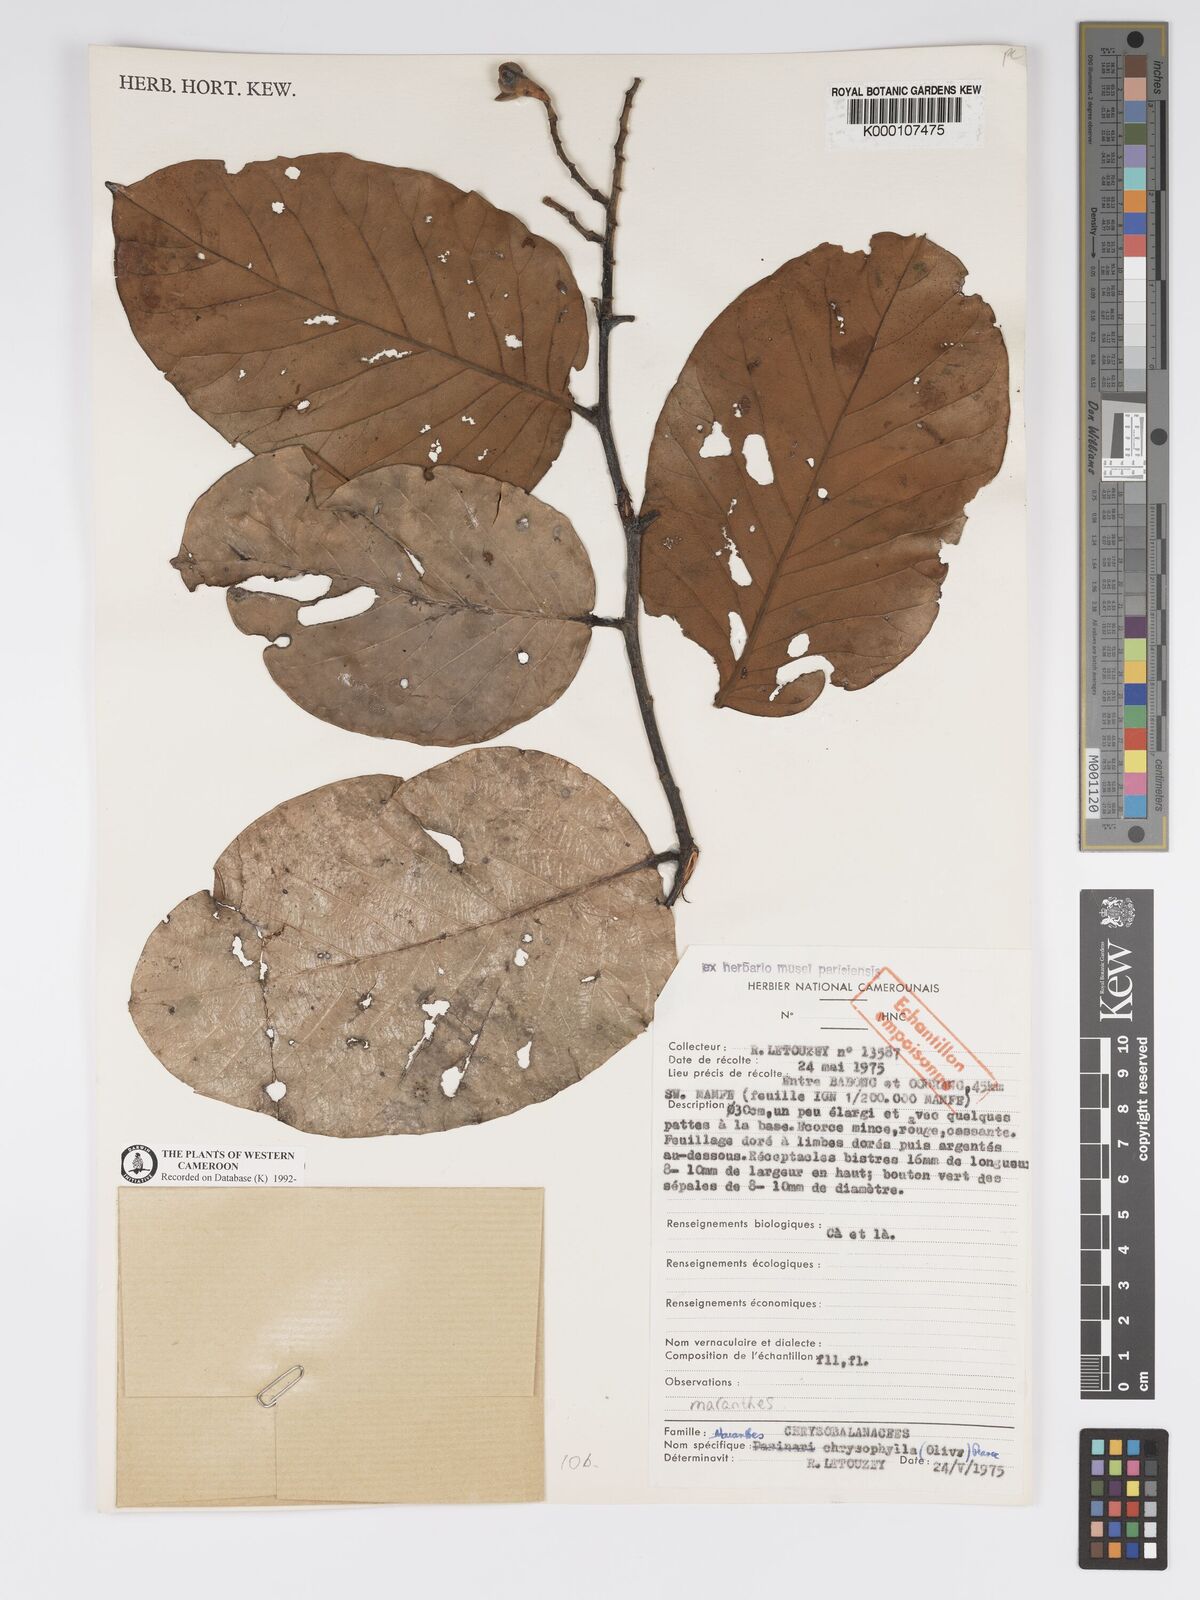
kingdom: Plantae
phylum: Tracheophyta
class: Magnoliopsida
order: Malpighiales
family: Chrysobalanaceae
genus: Maranthes
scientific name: Maranthes chrysophylla
